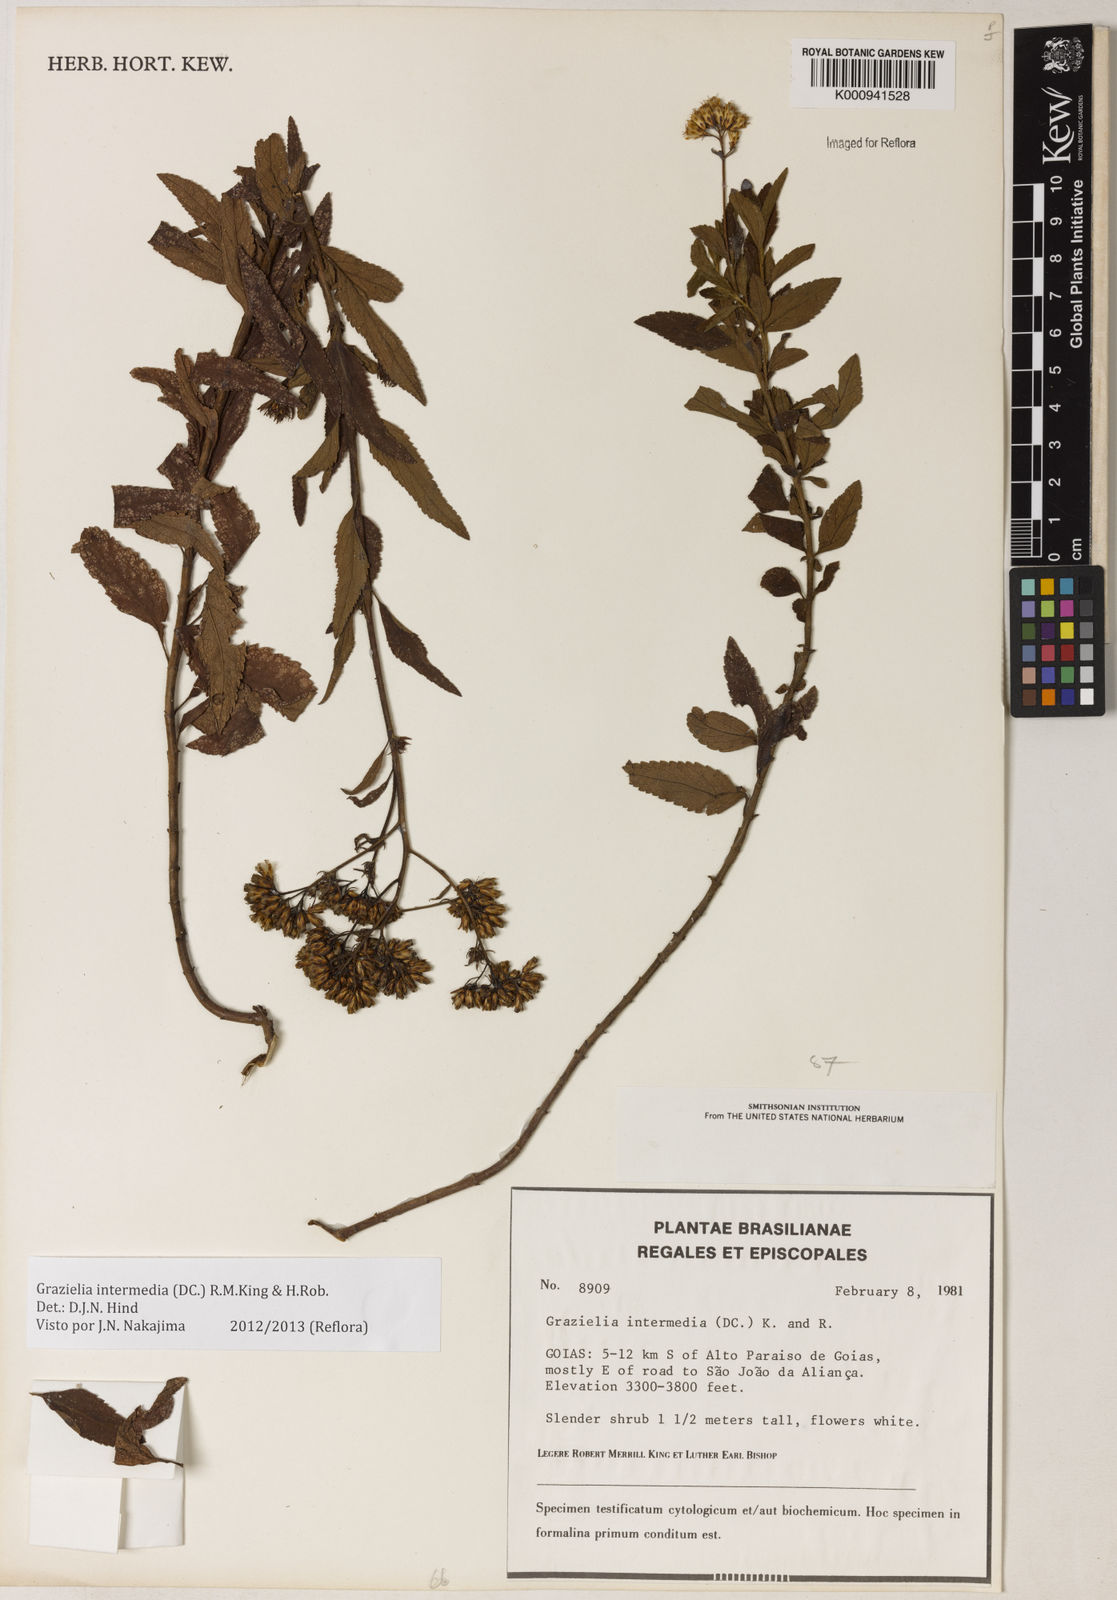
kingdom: Plantae
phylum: Tracheophyta
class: Magnoliopsida
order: Asterales
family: Asteraceae
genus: Grazielia
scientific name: Grazielia intermedia
